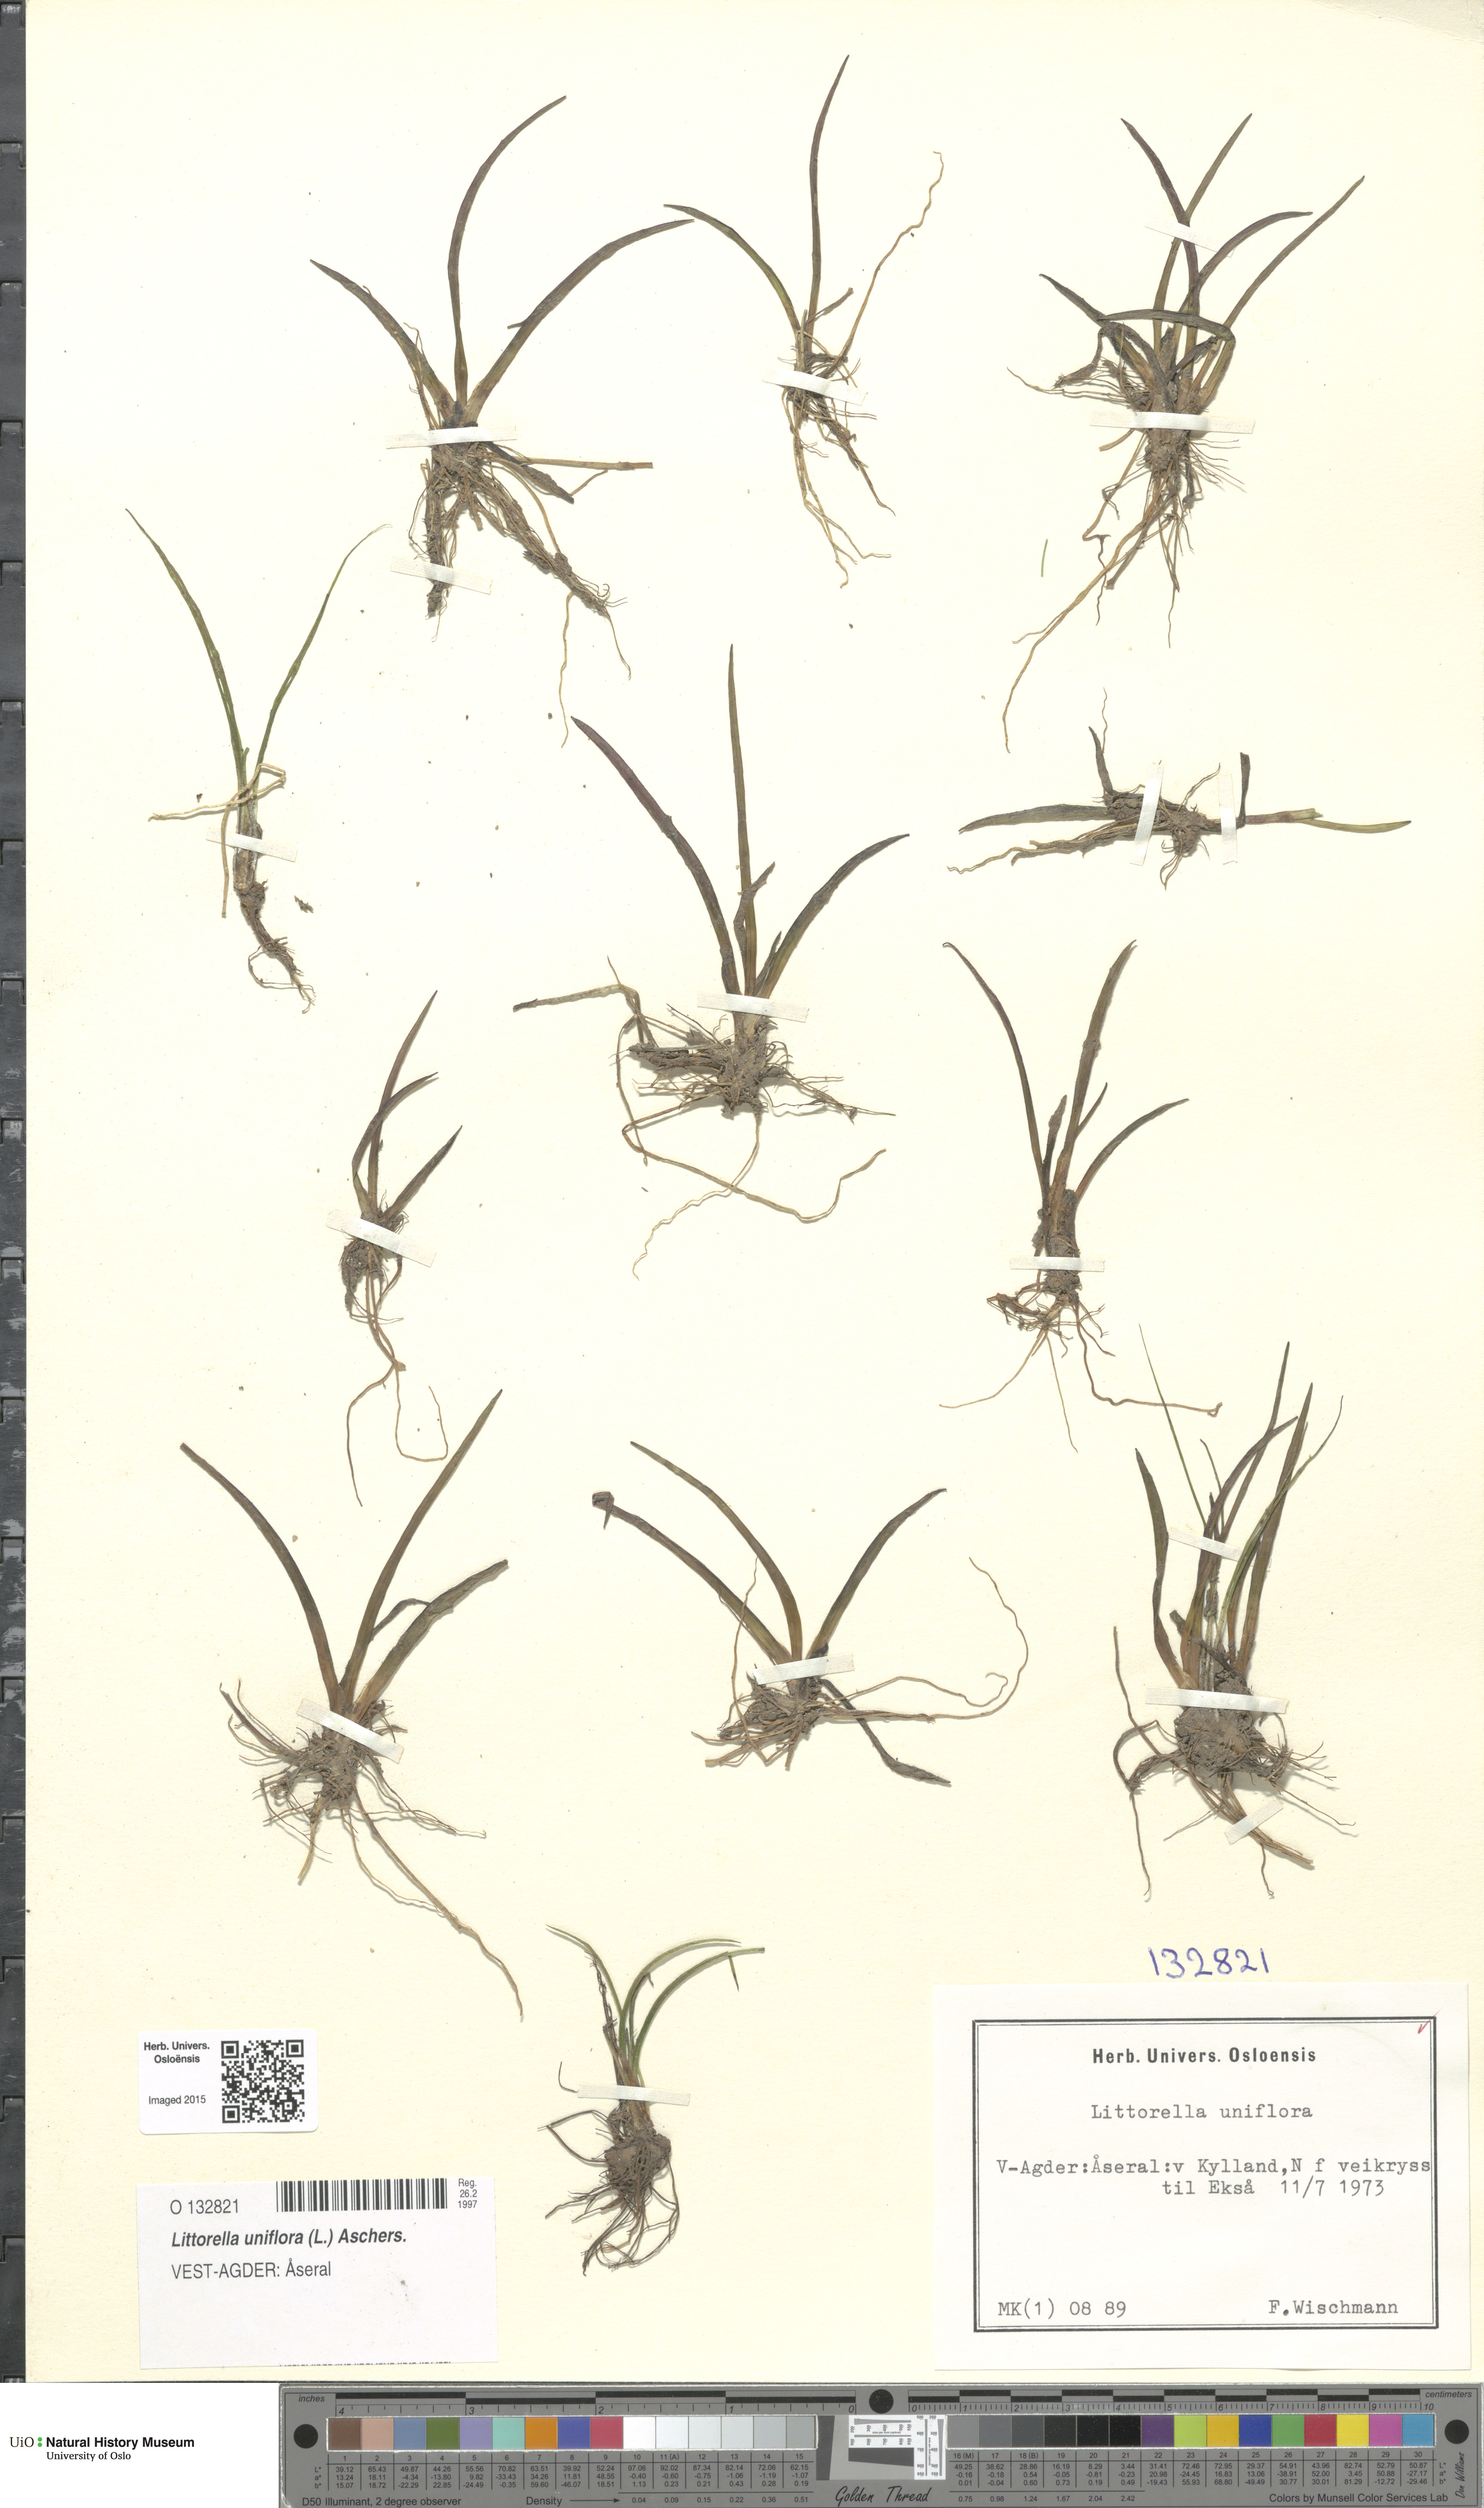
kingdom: Plantae
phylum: Tracheophyta
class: Magnoliopsida
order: Lamiales
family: Plantaginaceae
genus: Littorella
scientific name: Littorella uniflora
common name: Shoreweed
